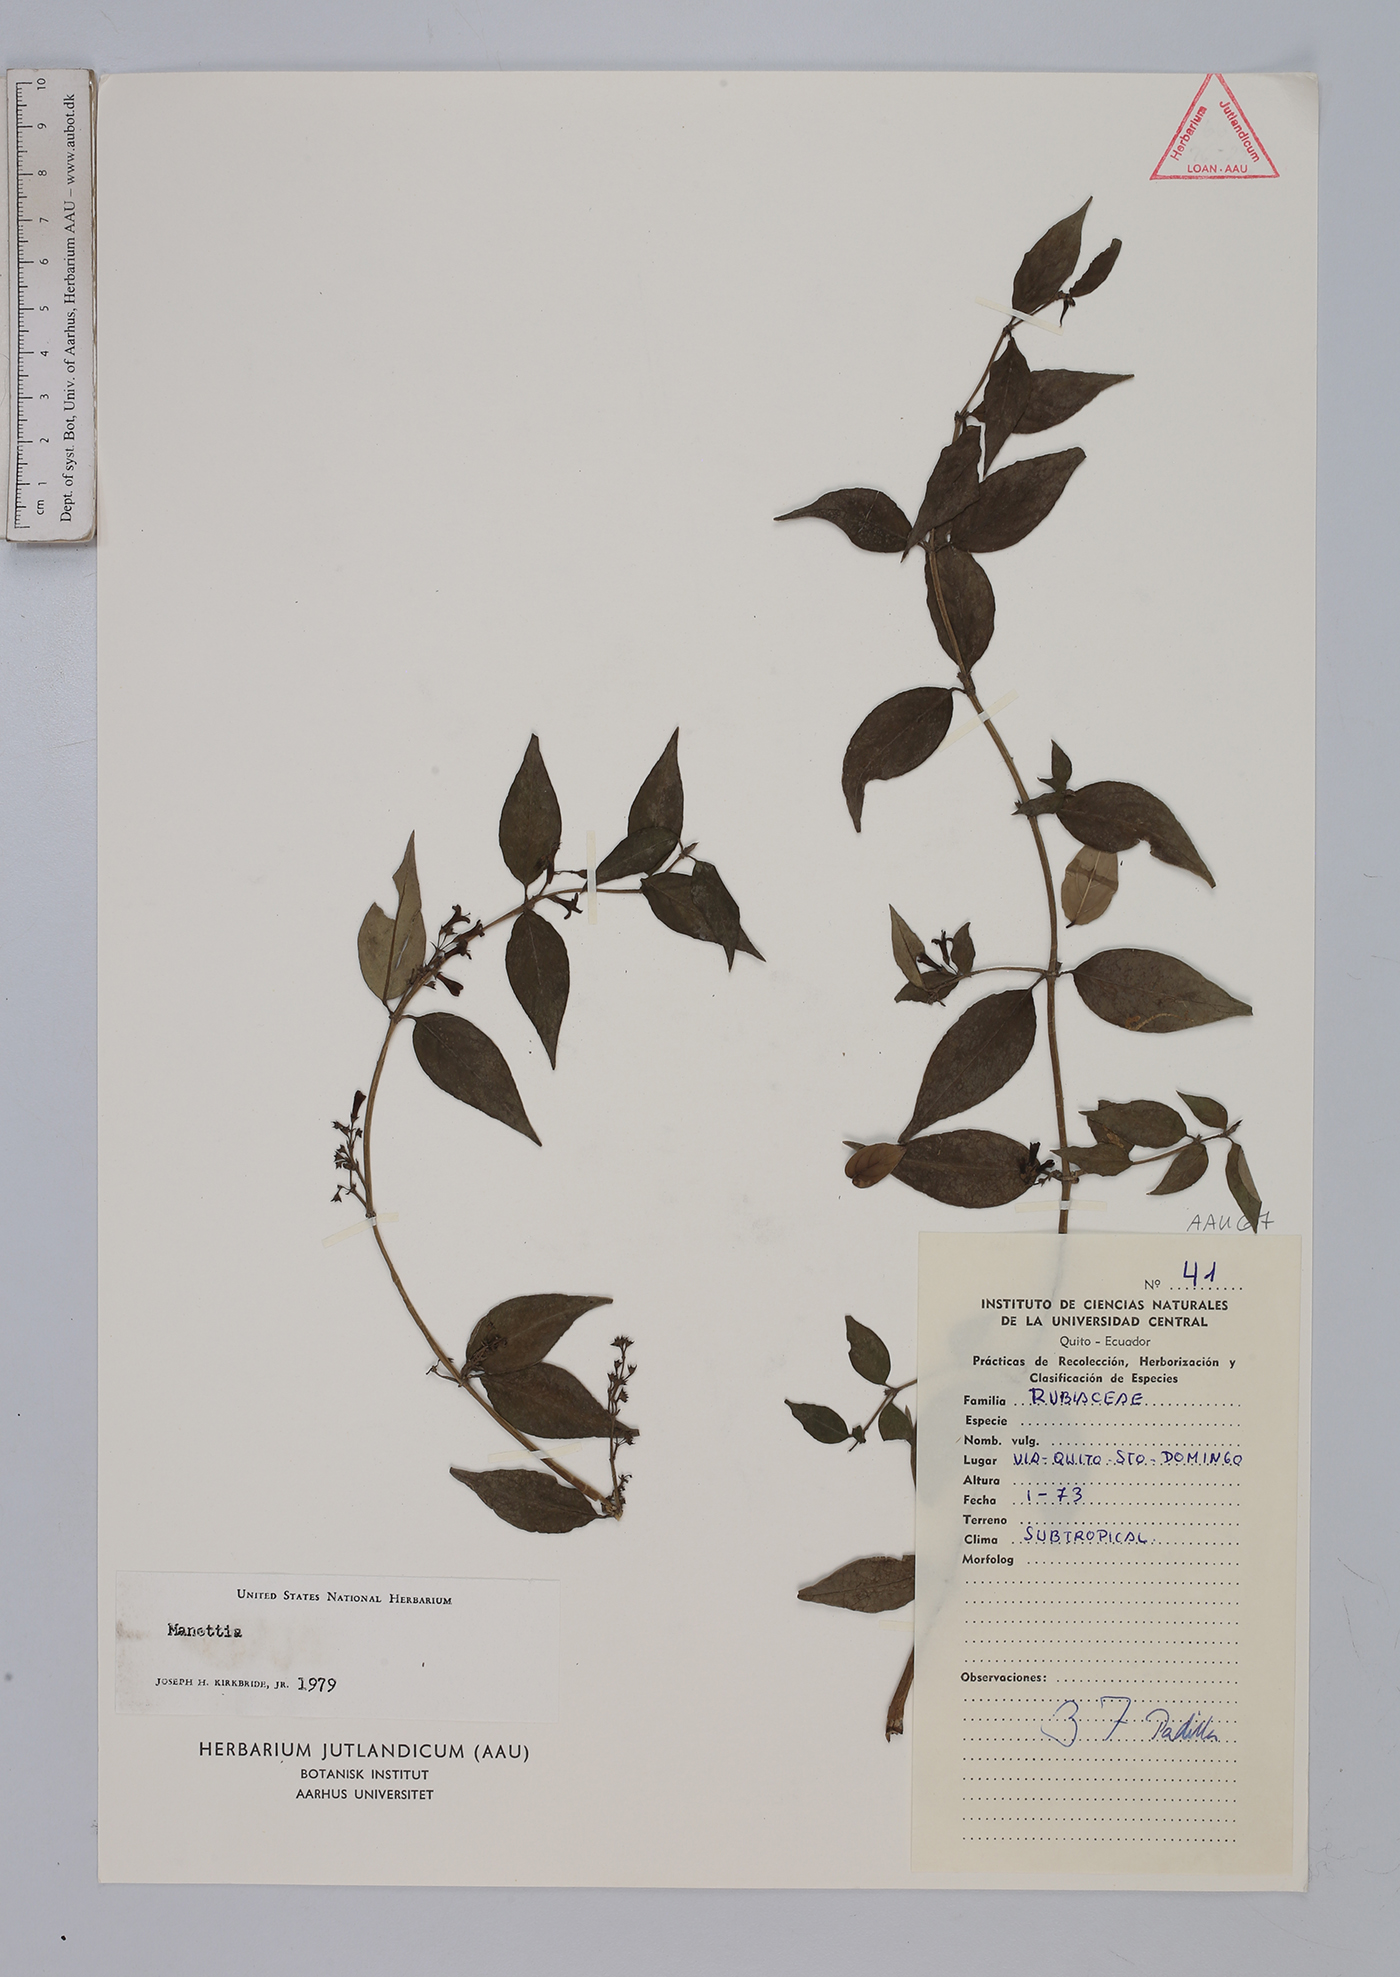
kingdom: Plantae
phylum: Tracheophyta
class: Magnoliopsida
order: Gentianales
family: Rubiaceae
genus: Manettia
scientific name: Manettia
